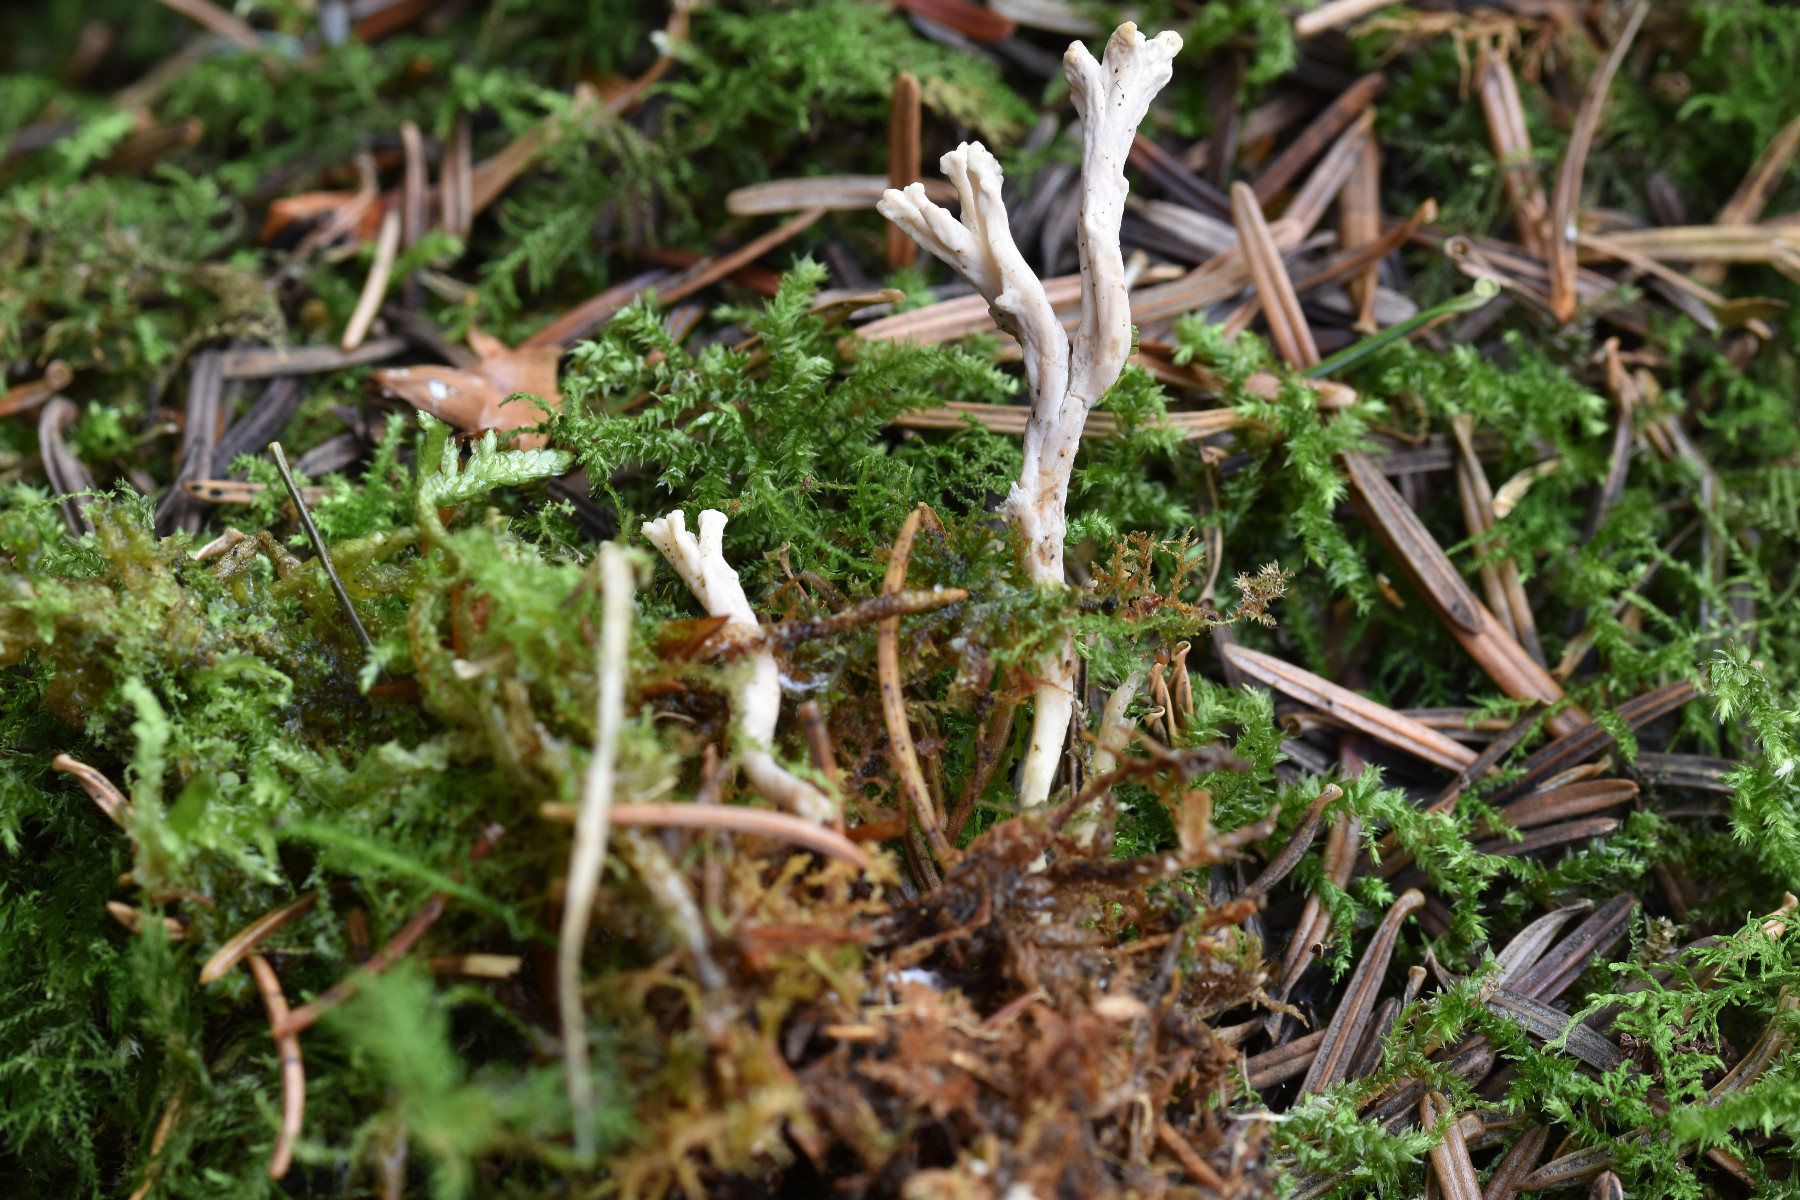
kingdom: Fungi
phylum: Basidiomycota
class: Agaricomycetes
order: Cantharellales
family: Hydnaceae
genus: Clavulina
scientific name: Clavulina
